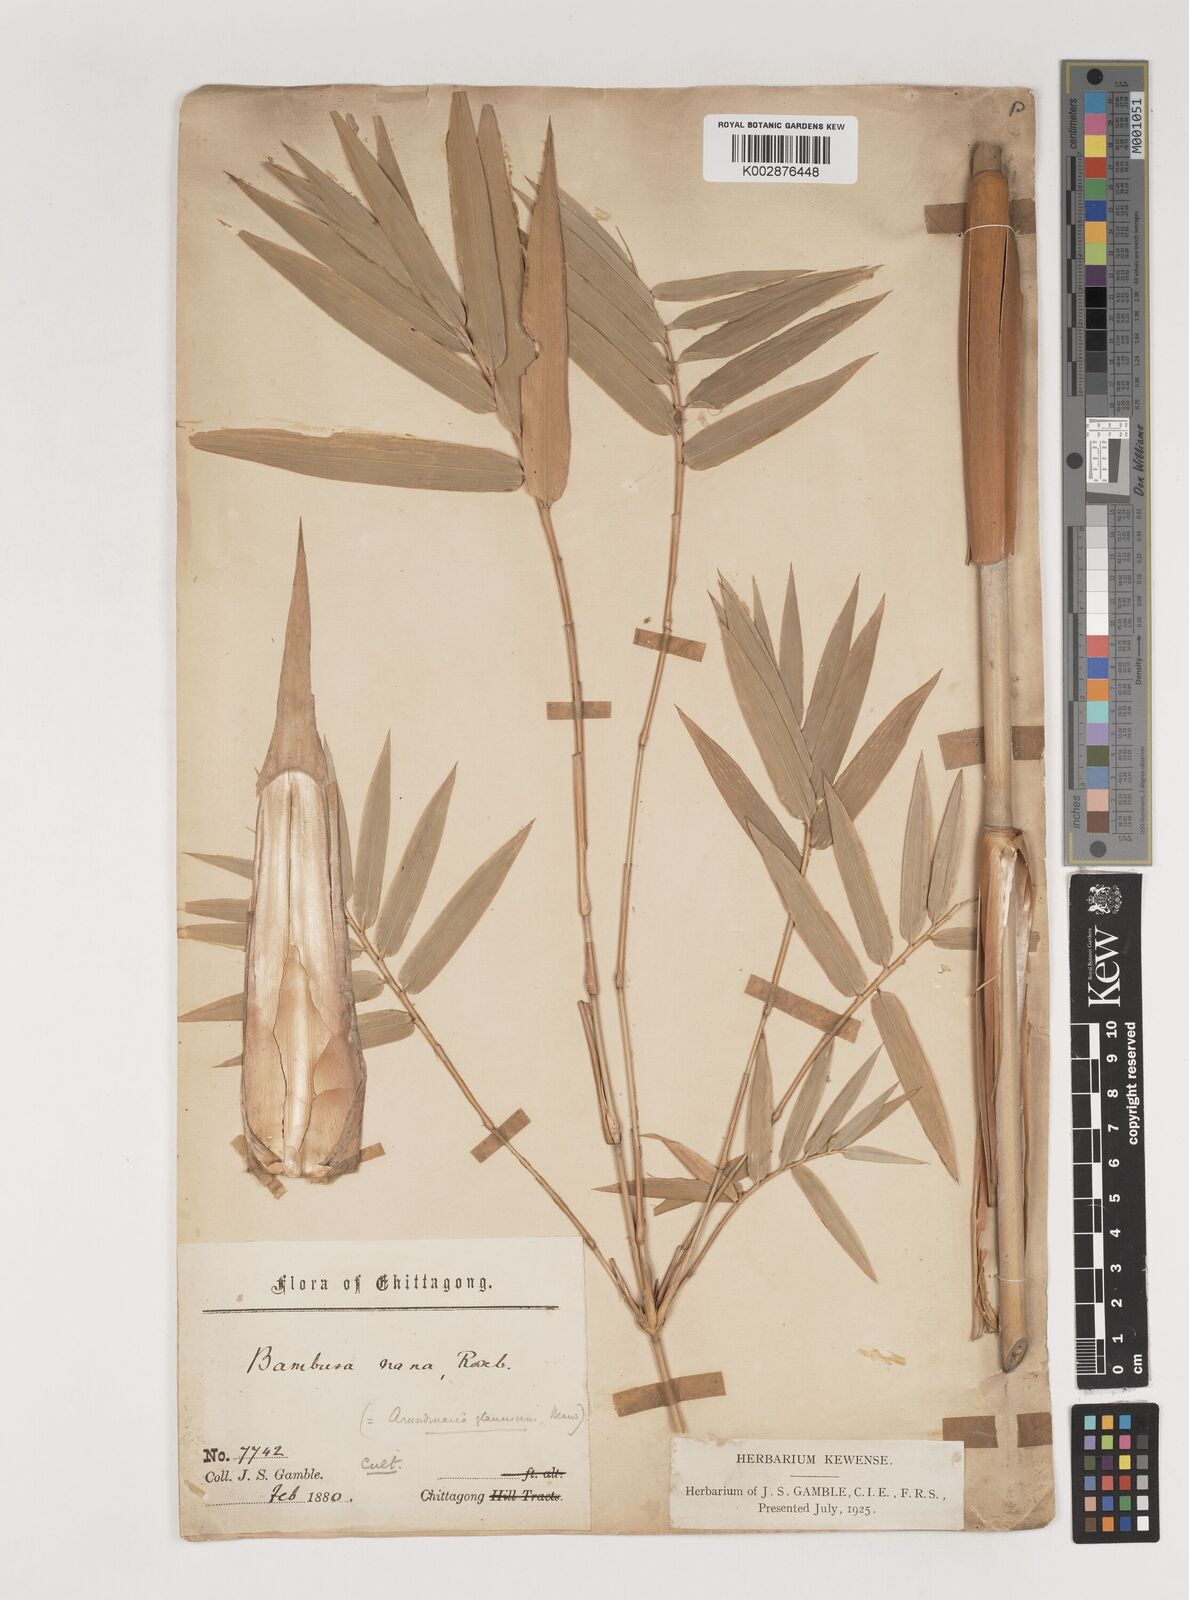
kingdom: Plantae
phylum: Tracheophyta
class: Liliopsida
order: Poales
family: Poaceae
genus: Bambusa
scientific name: Bambusa multiplex
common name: Hedge bamboo
